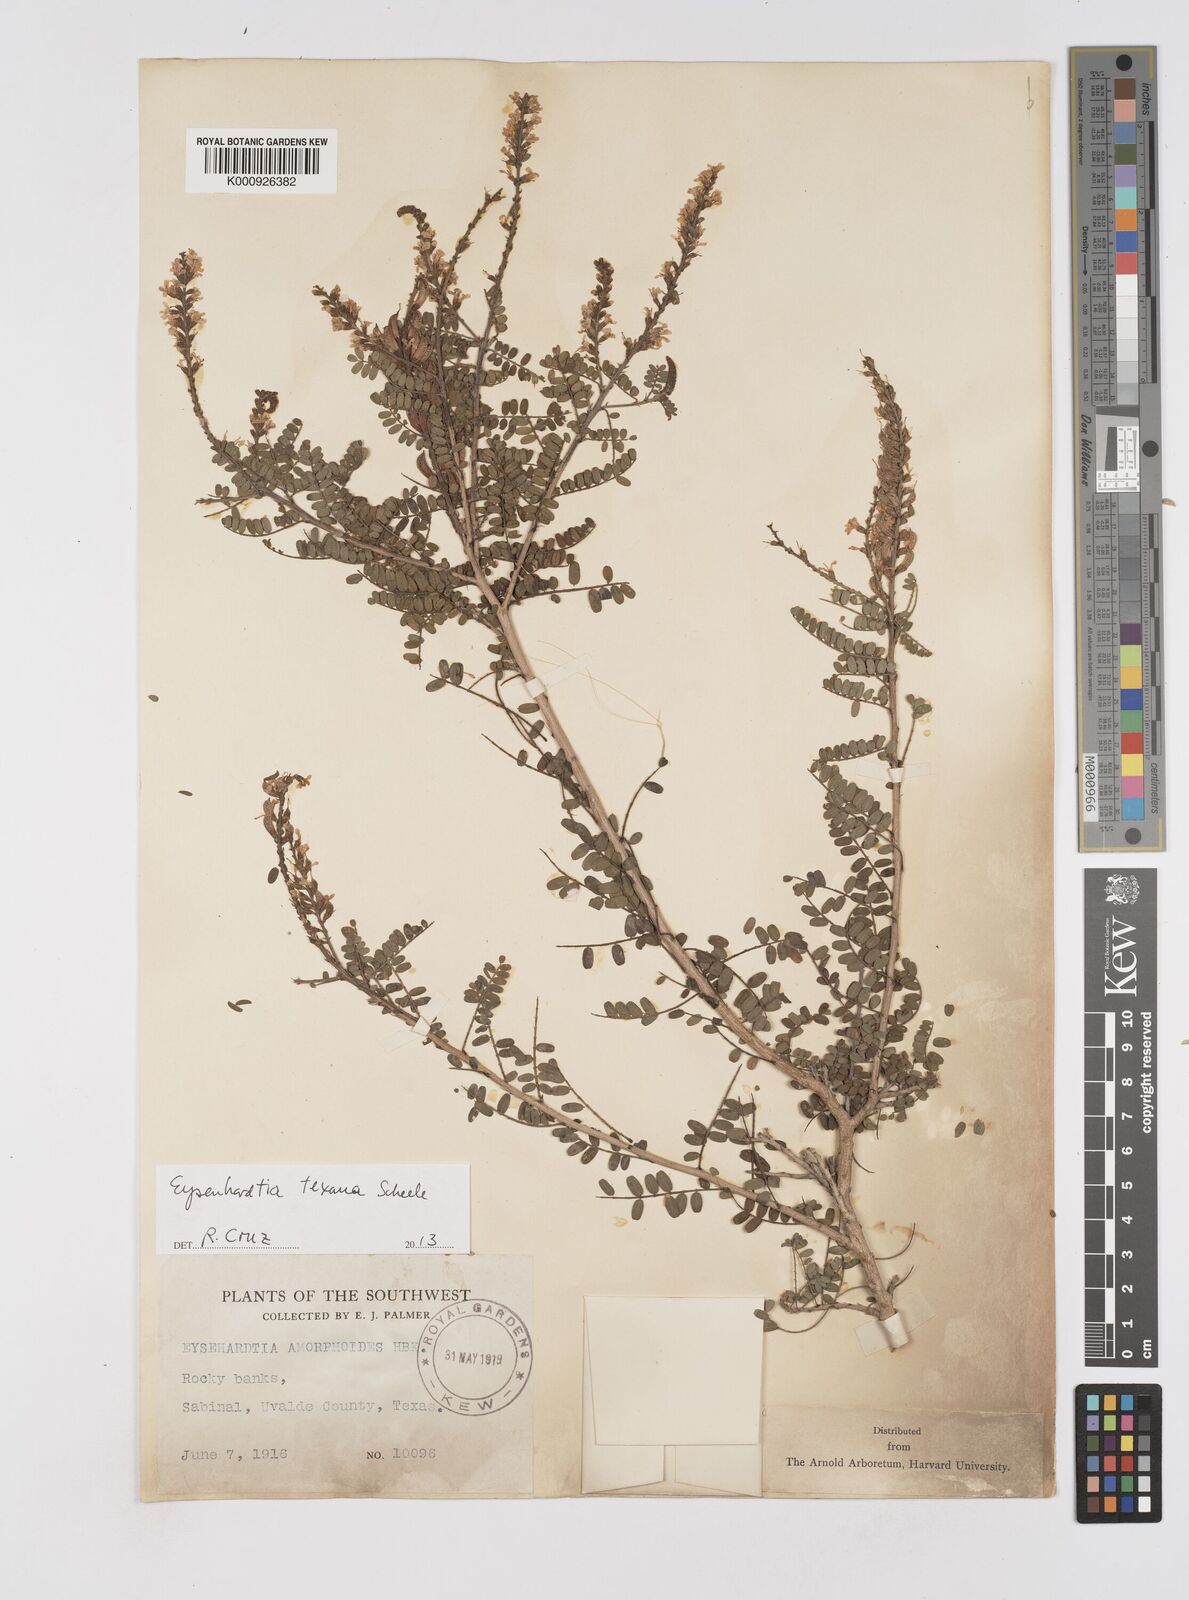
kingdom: Plantae
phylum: Tracheophyta
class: Magnoliopsida
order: Fabales
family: Fabaceae
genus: Eysenhardtia
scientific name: Eysenhardtia texana
